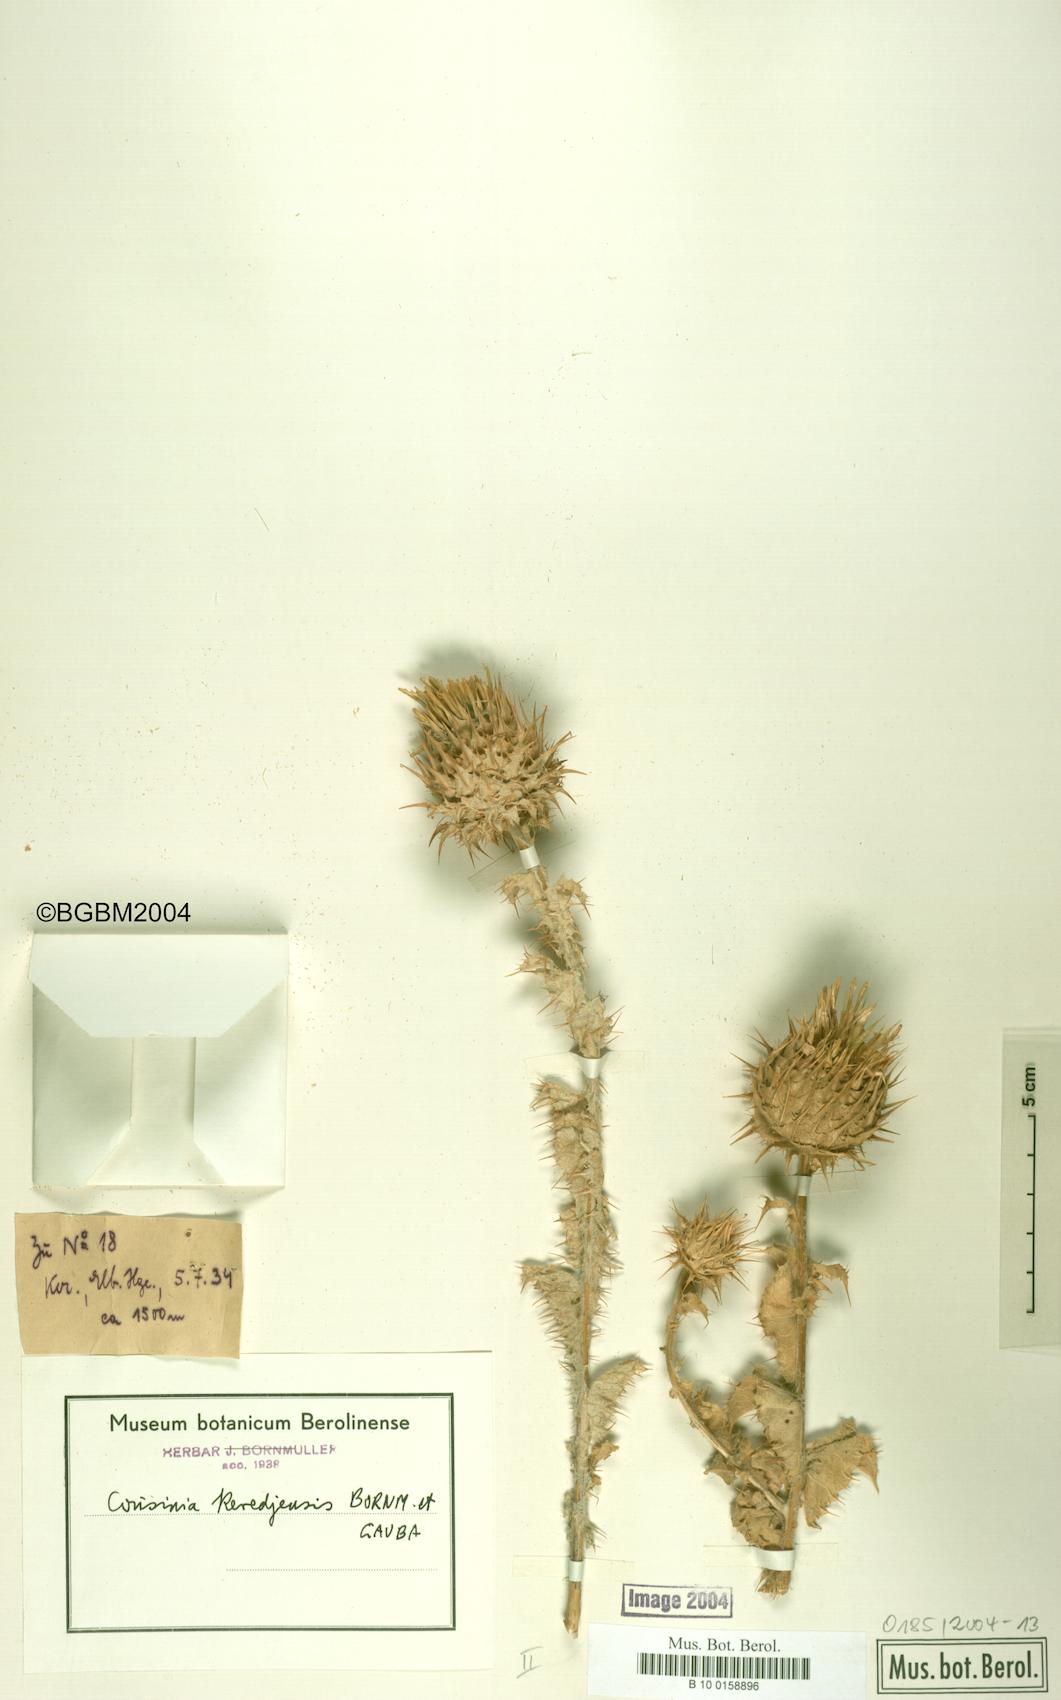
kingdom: Plantae
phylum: Tracheophyta
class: Magnoliopsida
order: Asterales
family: Asteraceae
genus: Cousinia
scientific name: Cousinia keredjensis
